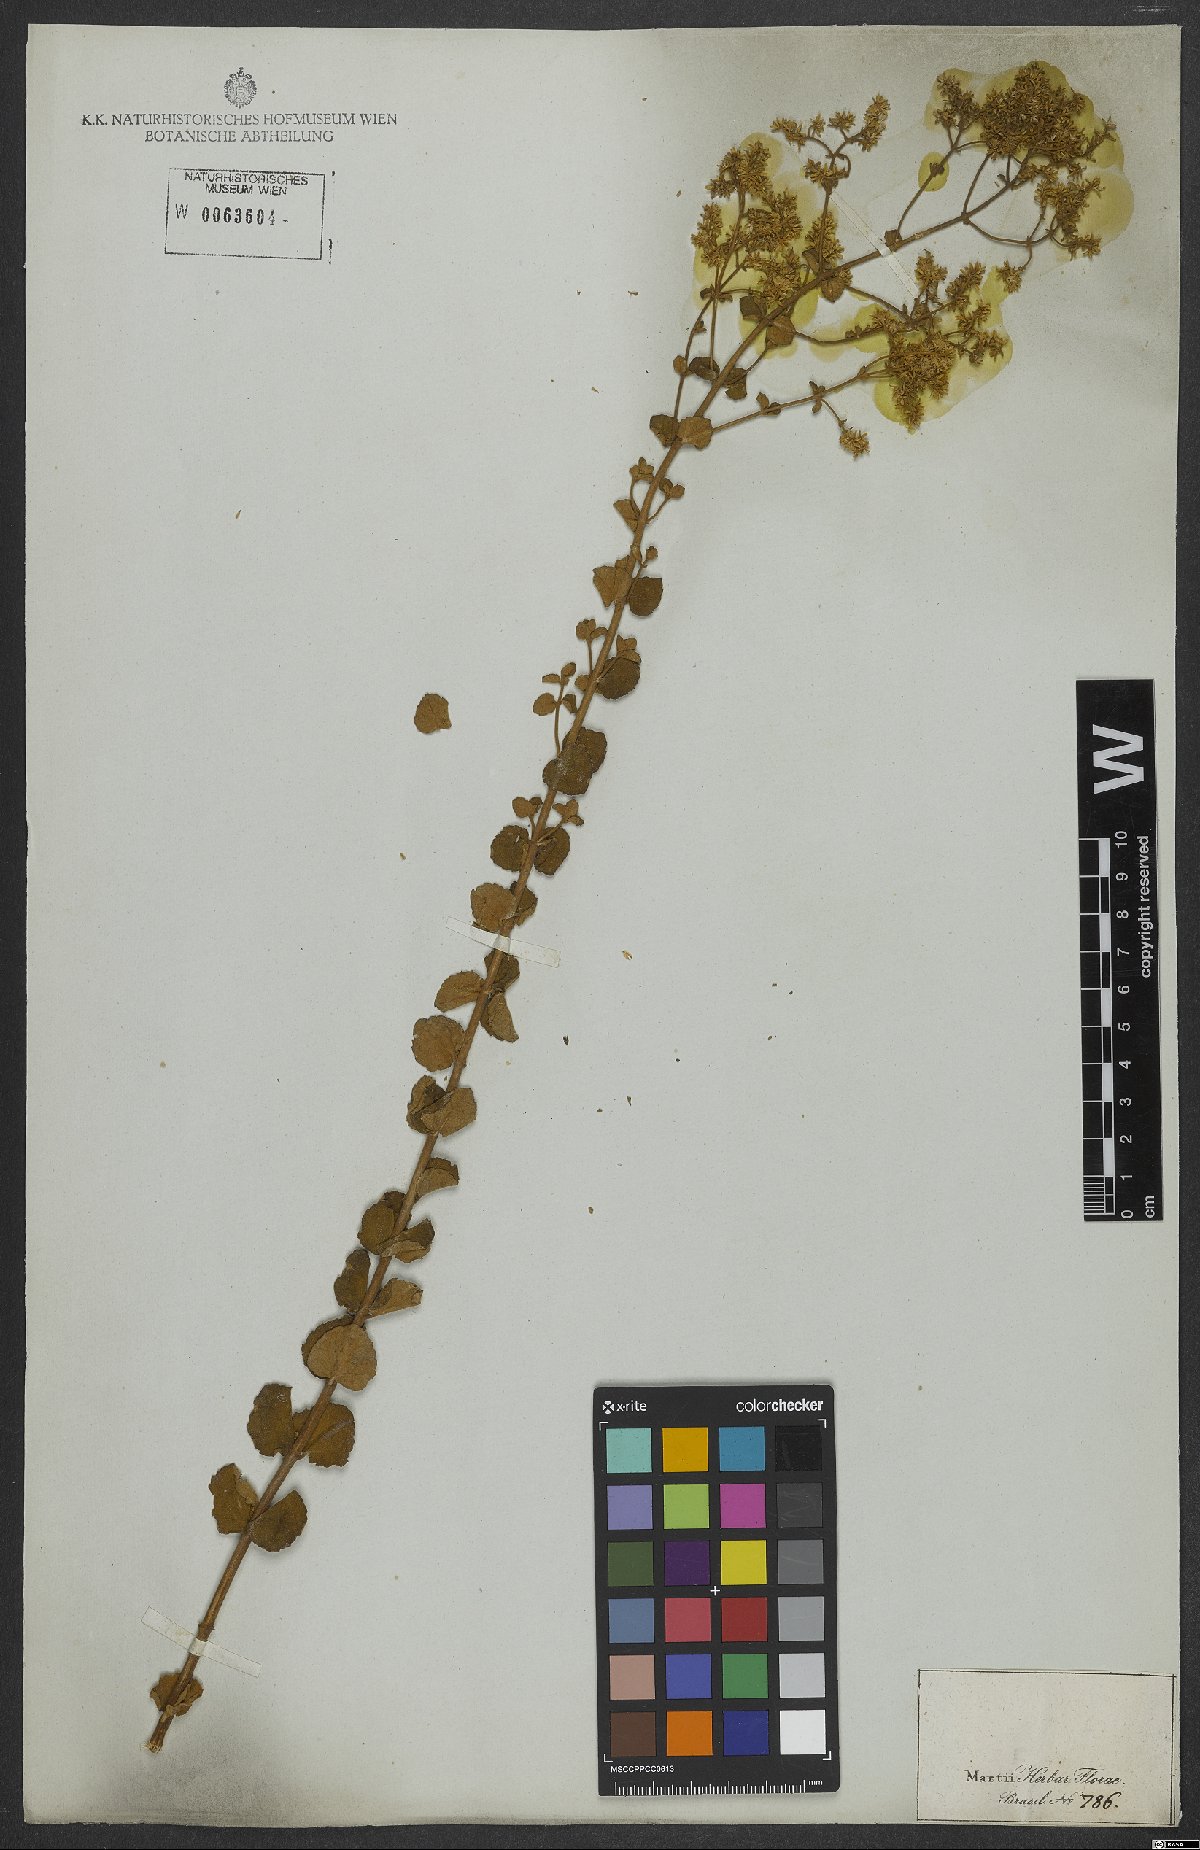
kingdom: Plantae
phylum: Tracheophyta
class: Magnoliopsida
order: Asterales
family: Asteraceae
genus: Mikania
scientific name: Mikania nummularia
